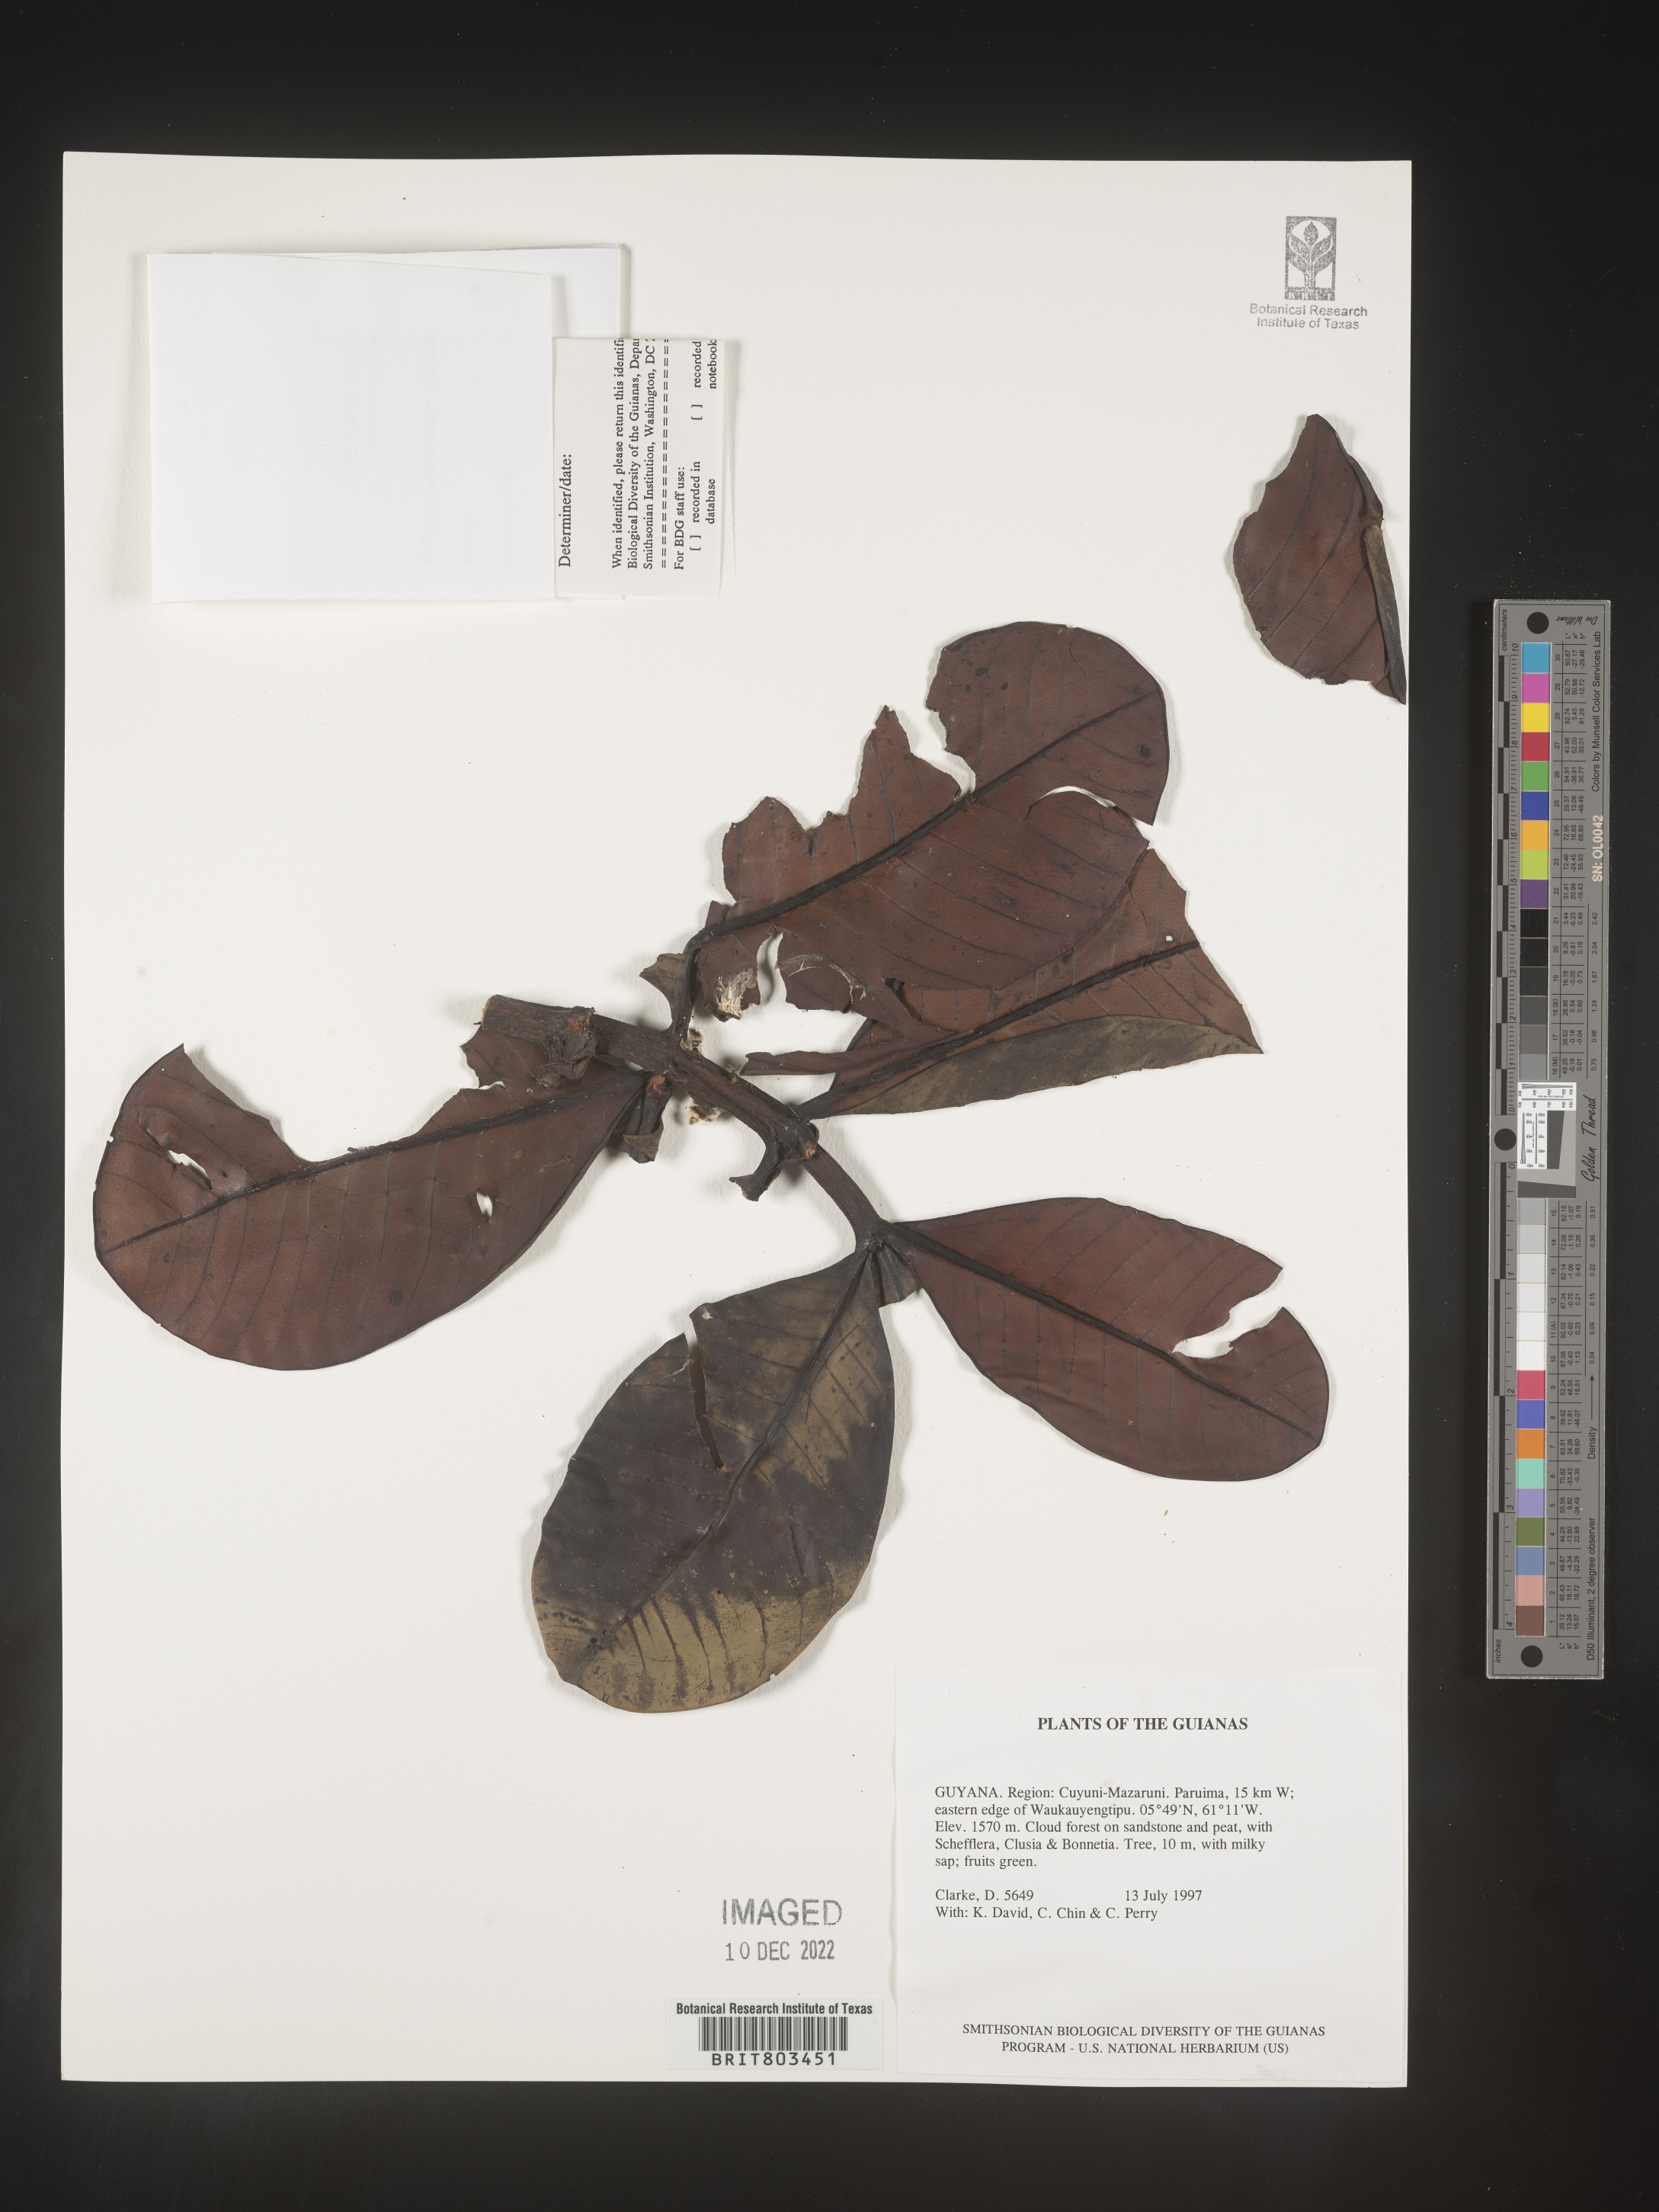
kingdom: Plantae
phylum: Tracheophyta
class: Magnoliopsida
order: Malpighiales
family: Clusiaceae
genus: Tovomita
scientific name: Tovomita
